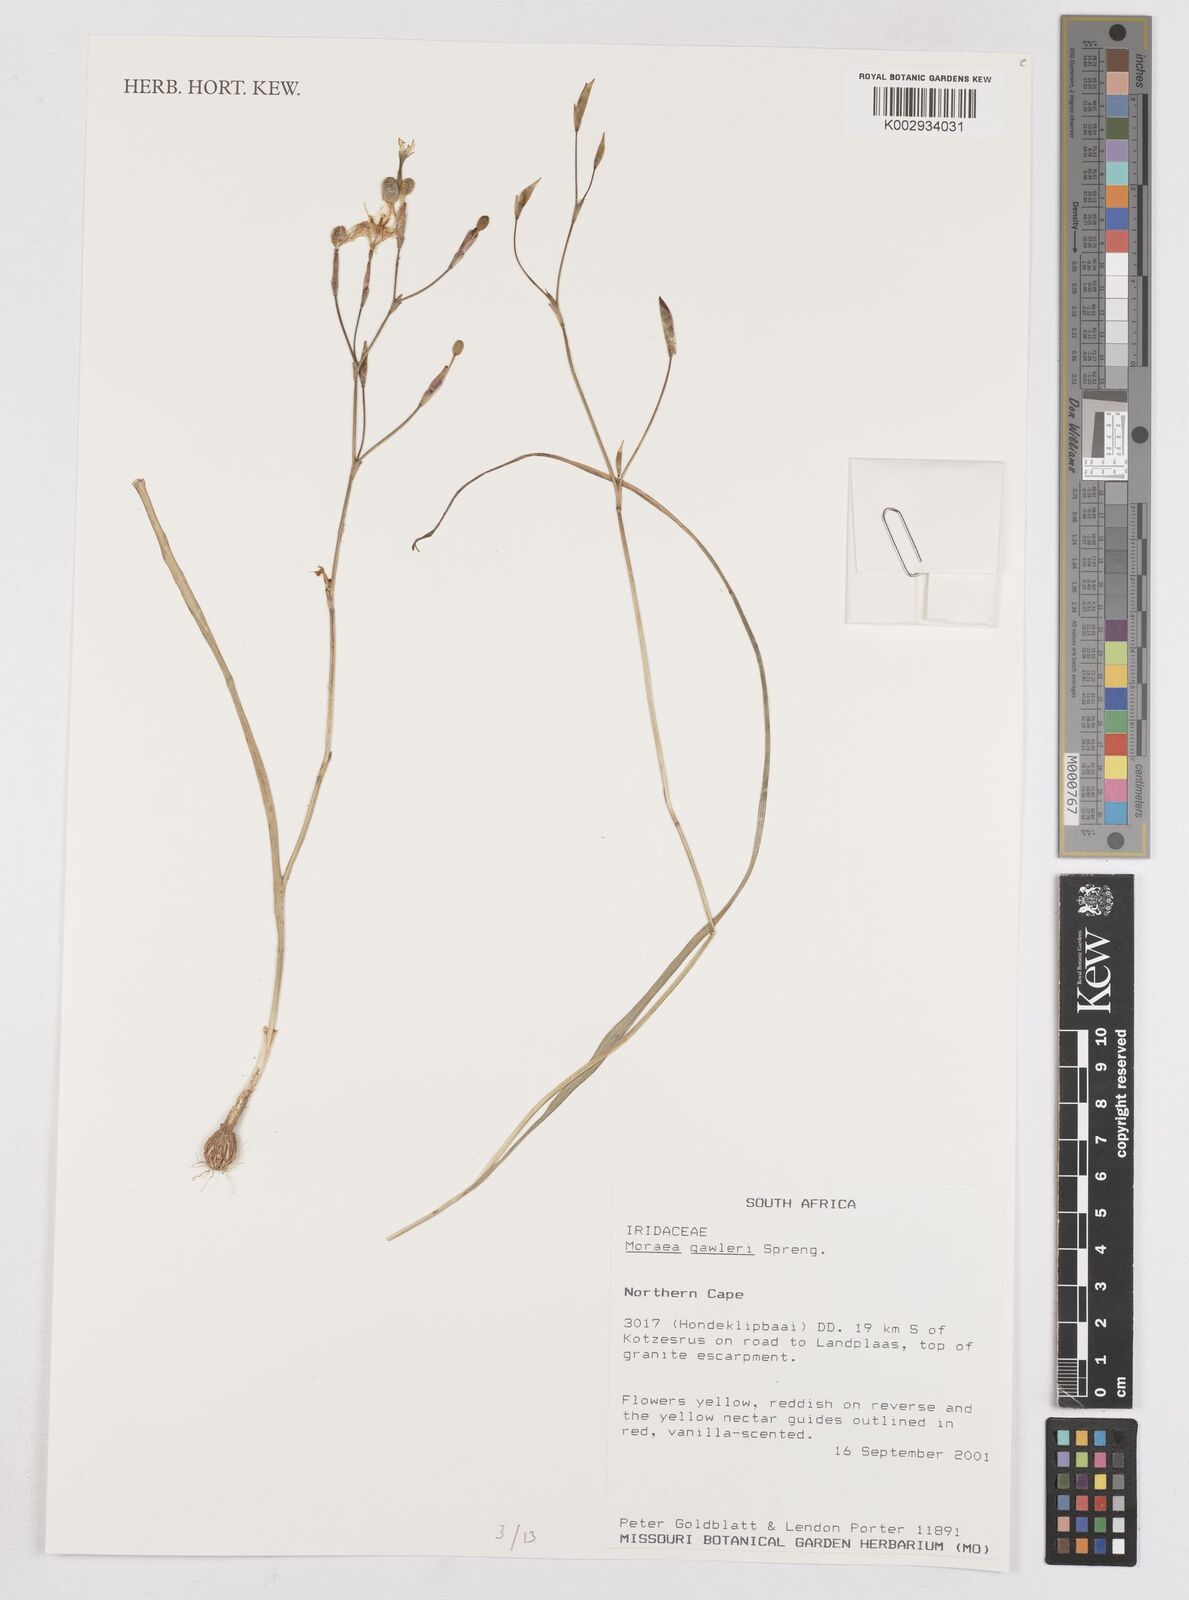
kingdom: Plantae
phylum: Tracheophyta
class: Liliopsida
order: Asparagales
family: Iridaceae
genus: Moraea
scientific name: Moraea gawleri
